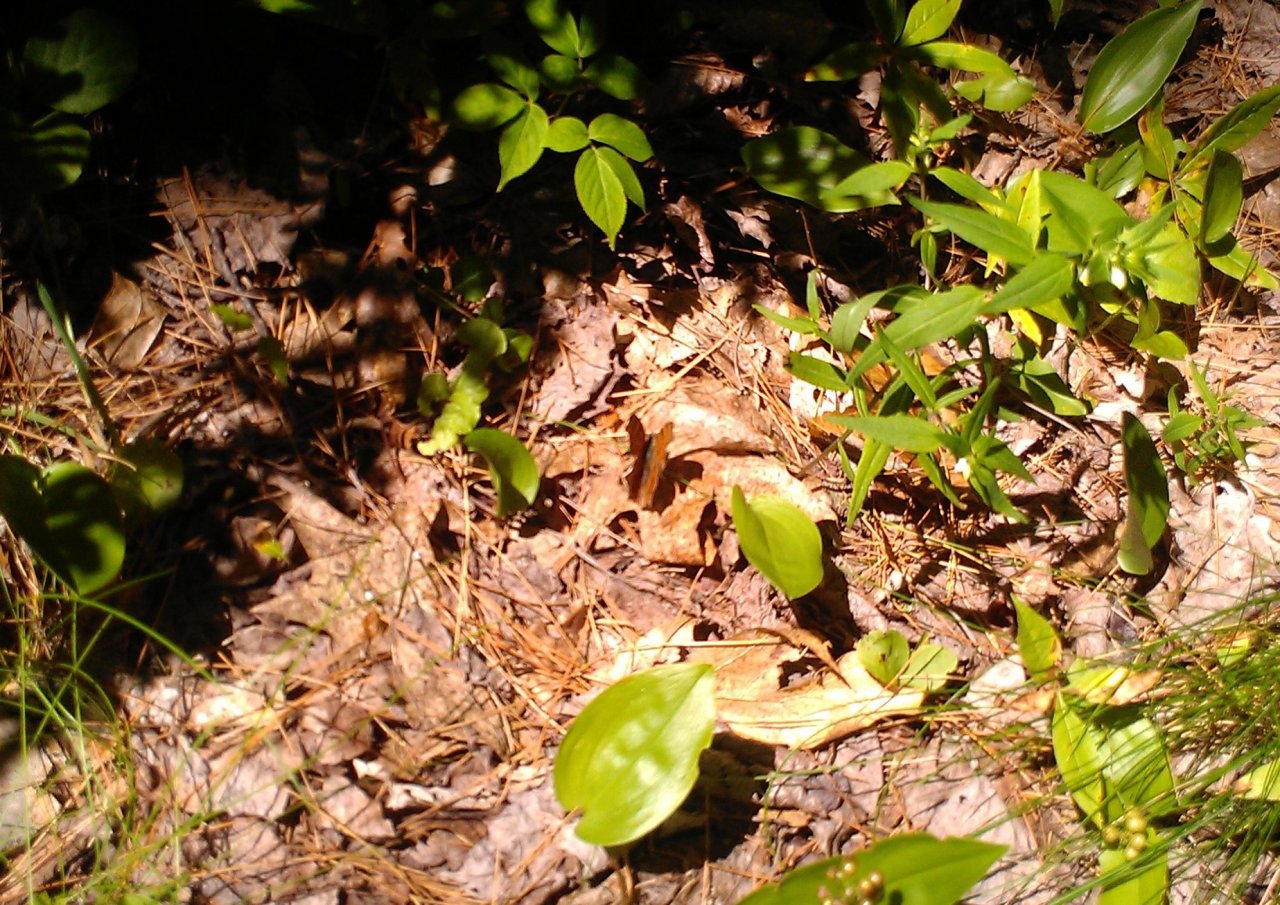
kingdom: Animalia
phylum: Arthropoda
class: Insecta
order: Lepidoptera
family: Nymphalidae
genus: Polygonia
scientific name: Polygonia
